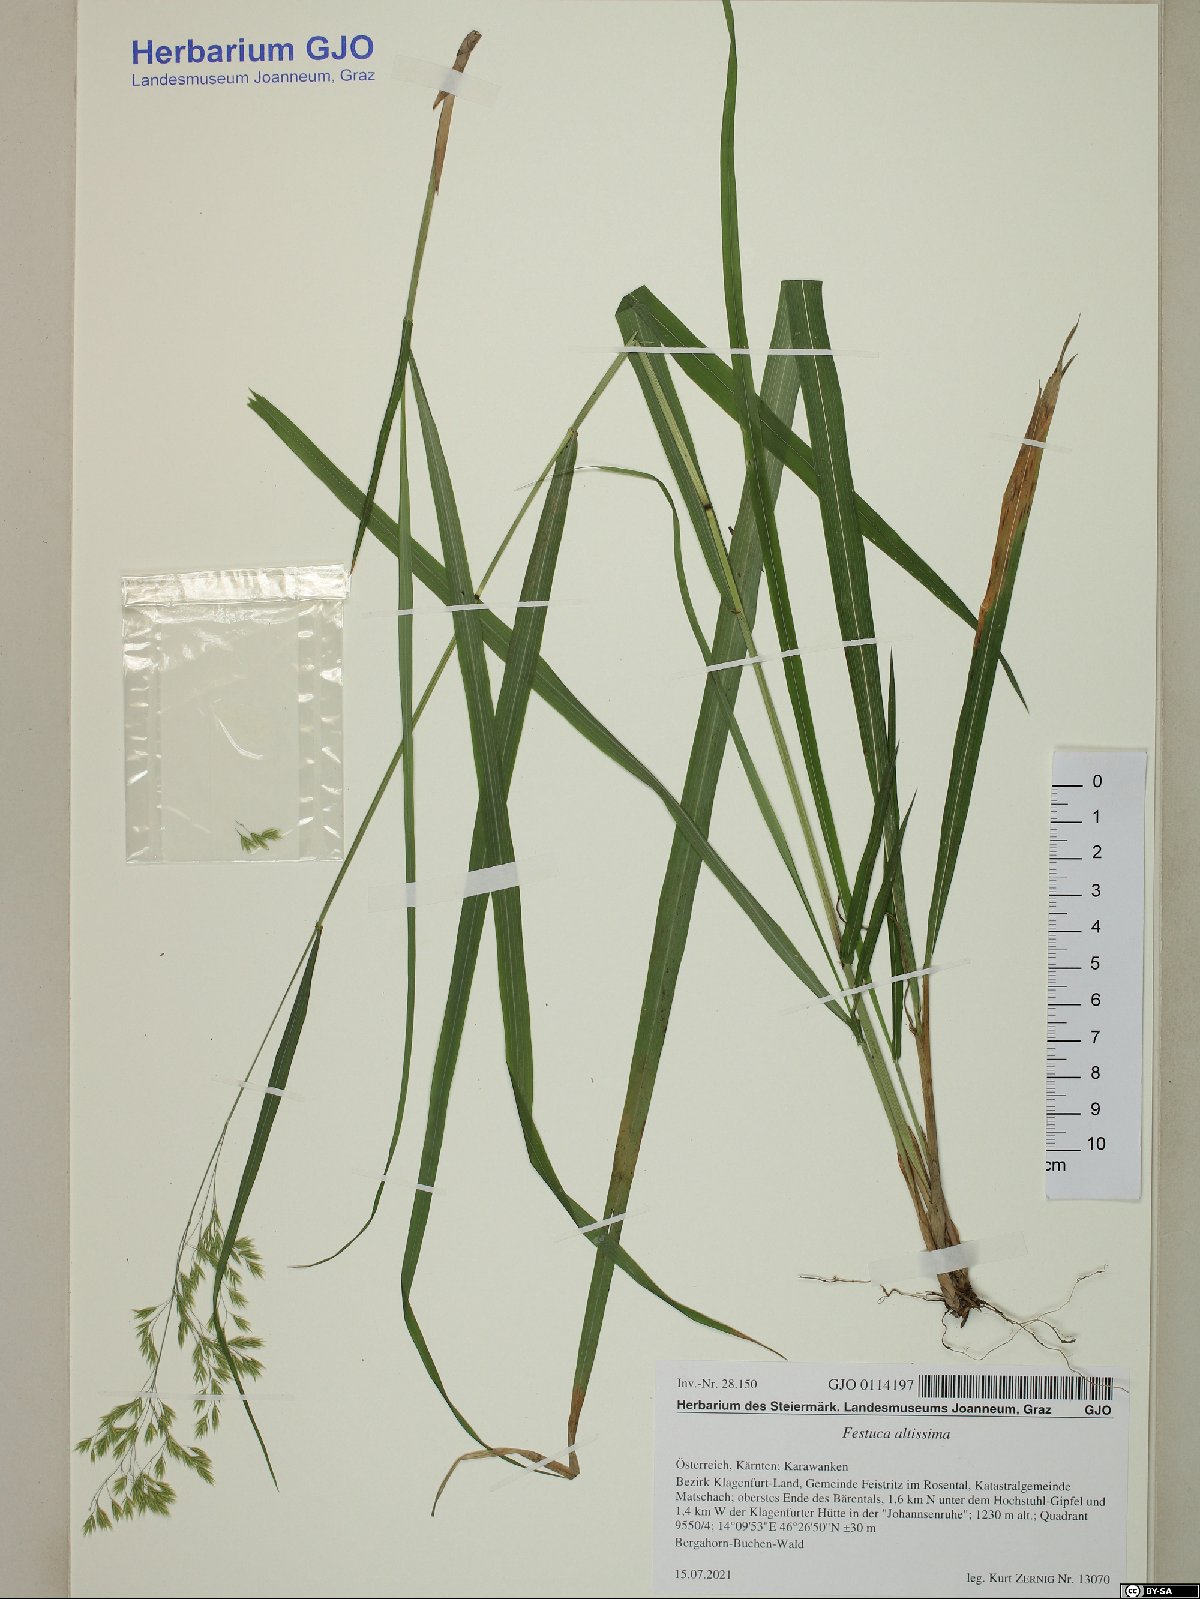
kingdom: Plantae
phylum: Tracheophyta
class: Liliopsida
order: Poales
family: Poaceae
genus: Festuca
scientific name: Festuca altissima
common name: Wood fescue
